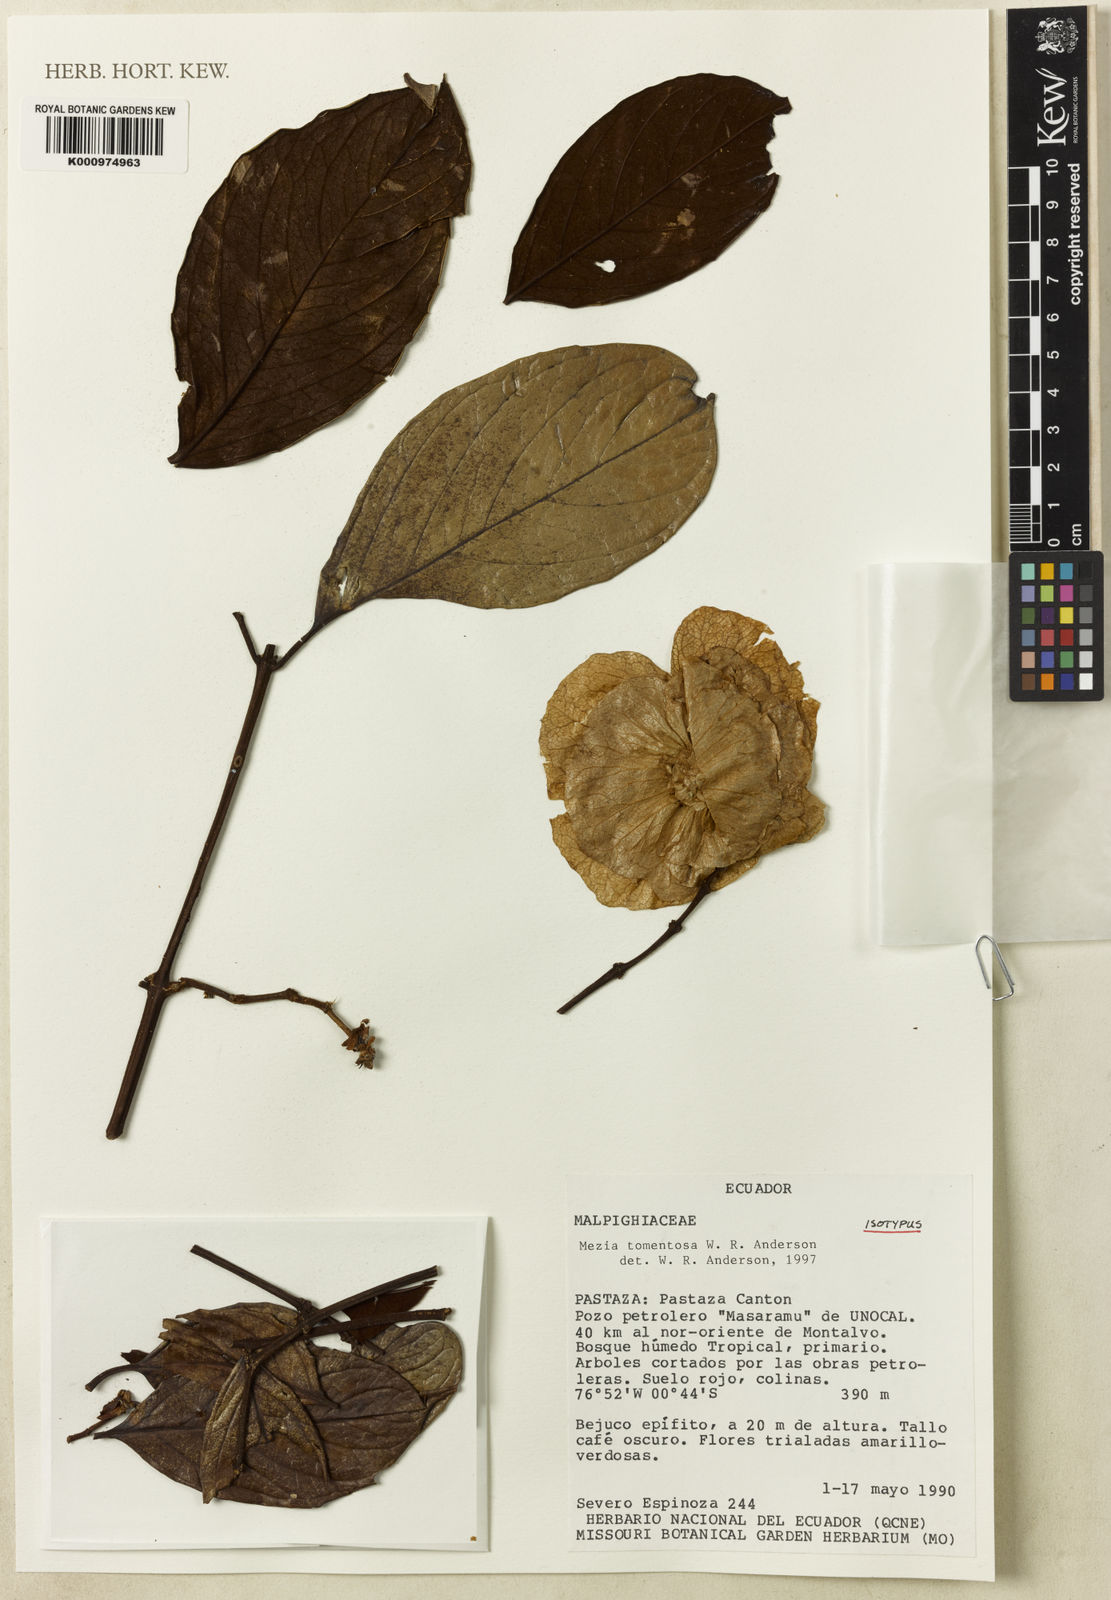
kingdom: Plantae
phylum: Tracheophyta
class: Magnoliopsida
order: Malpighiales
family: Malpighiaceae
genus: Mezia
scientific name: Mezia tomentosa
